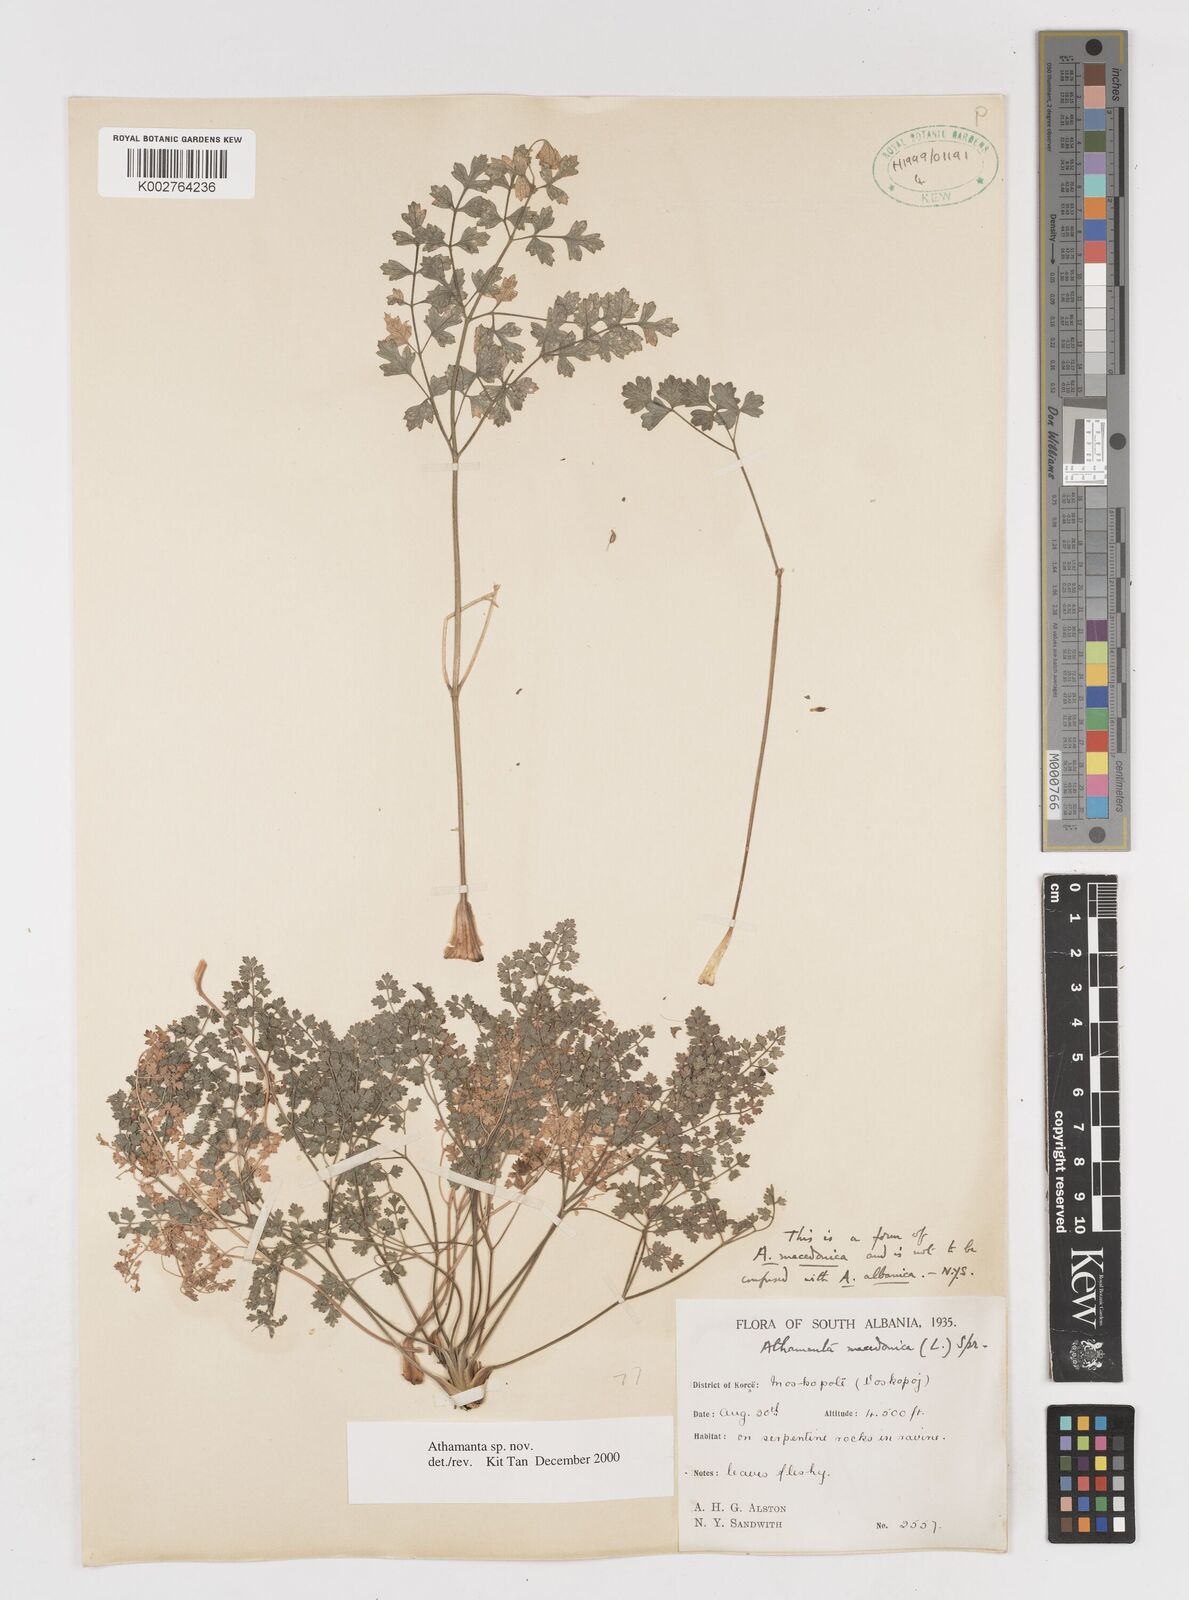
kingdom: Plantae
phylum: Tracheophyta
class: Magnoliopsida
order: Apiales
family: Apiaceae
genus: Athamanta
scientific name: Athamanta
